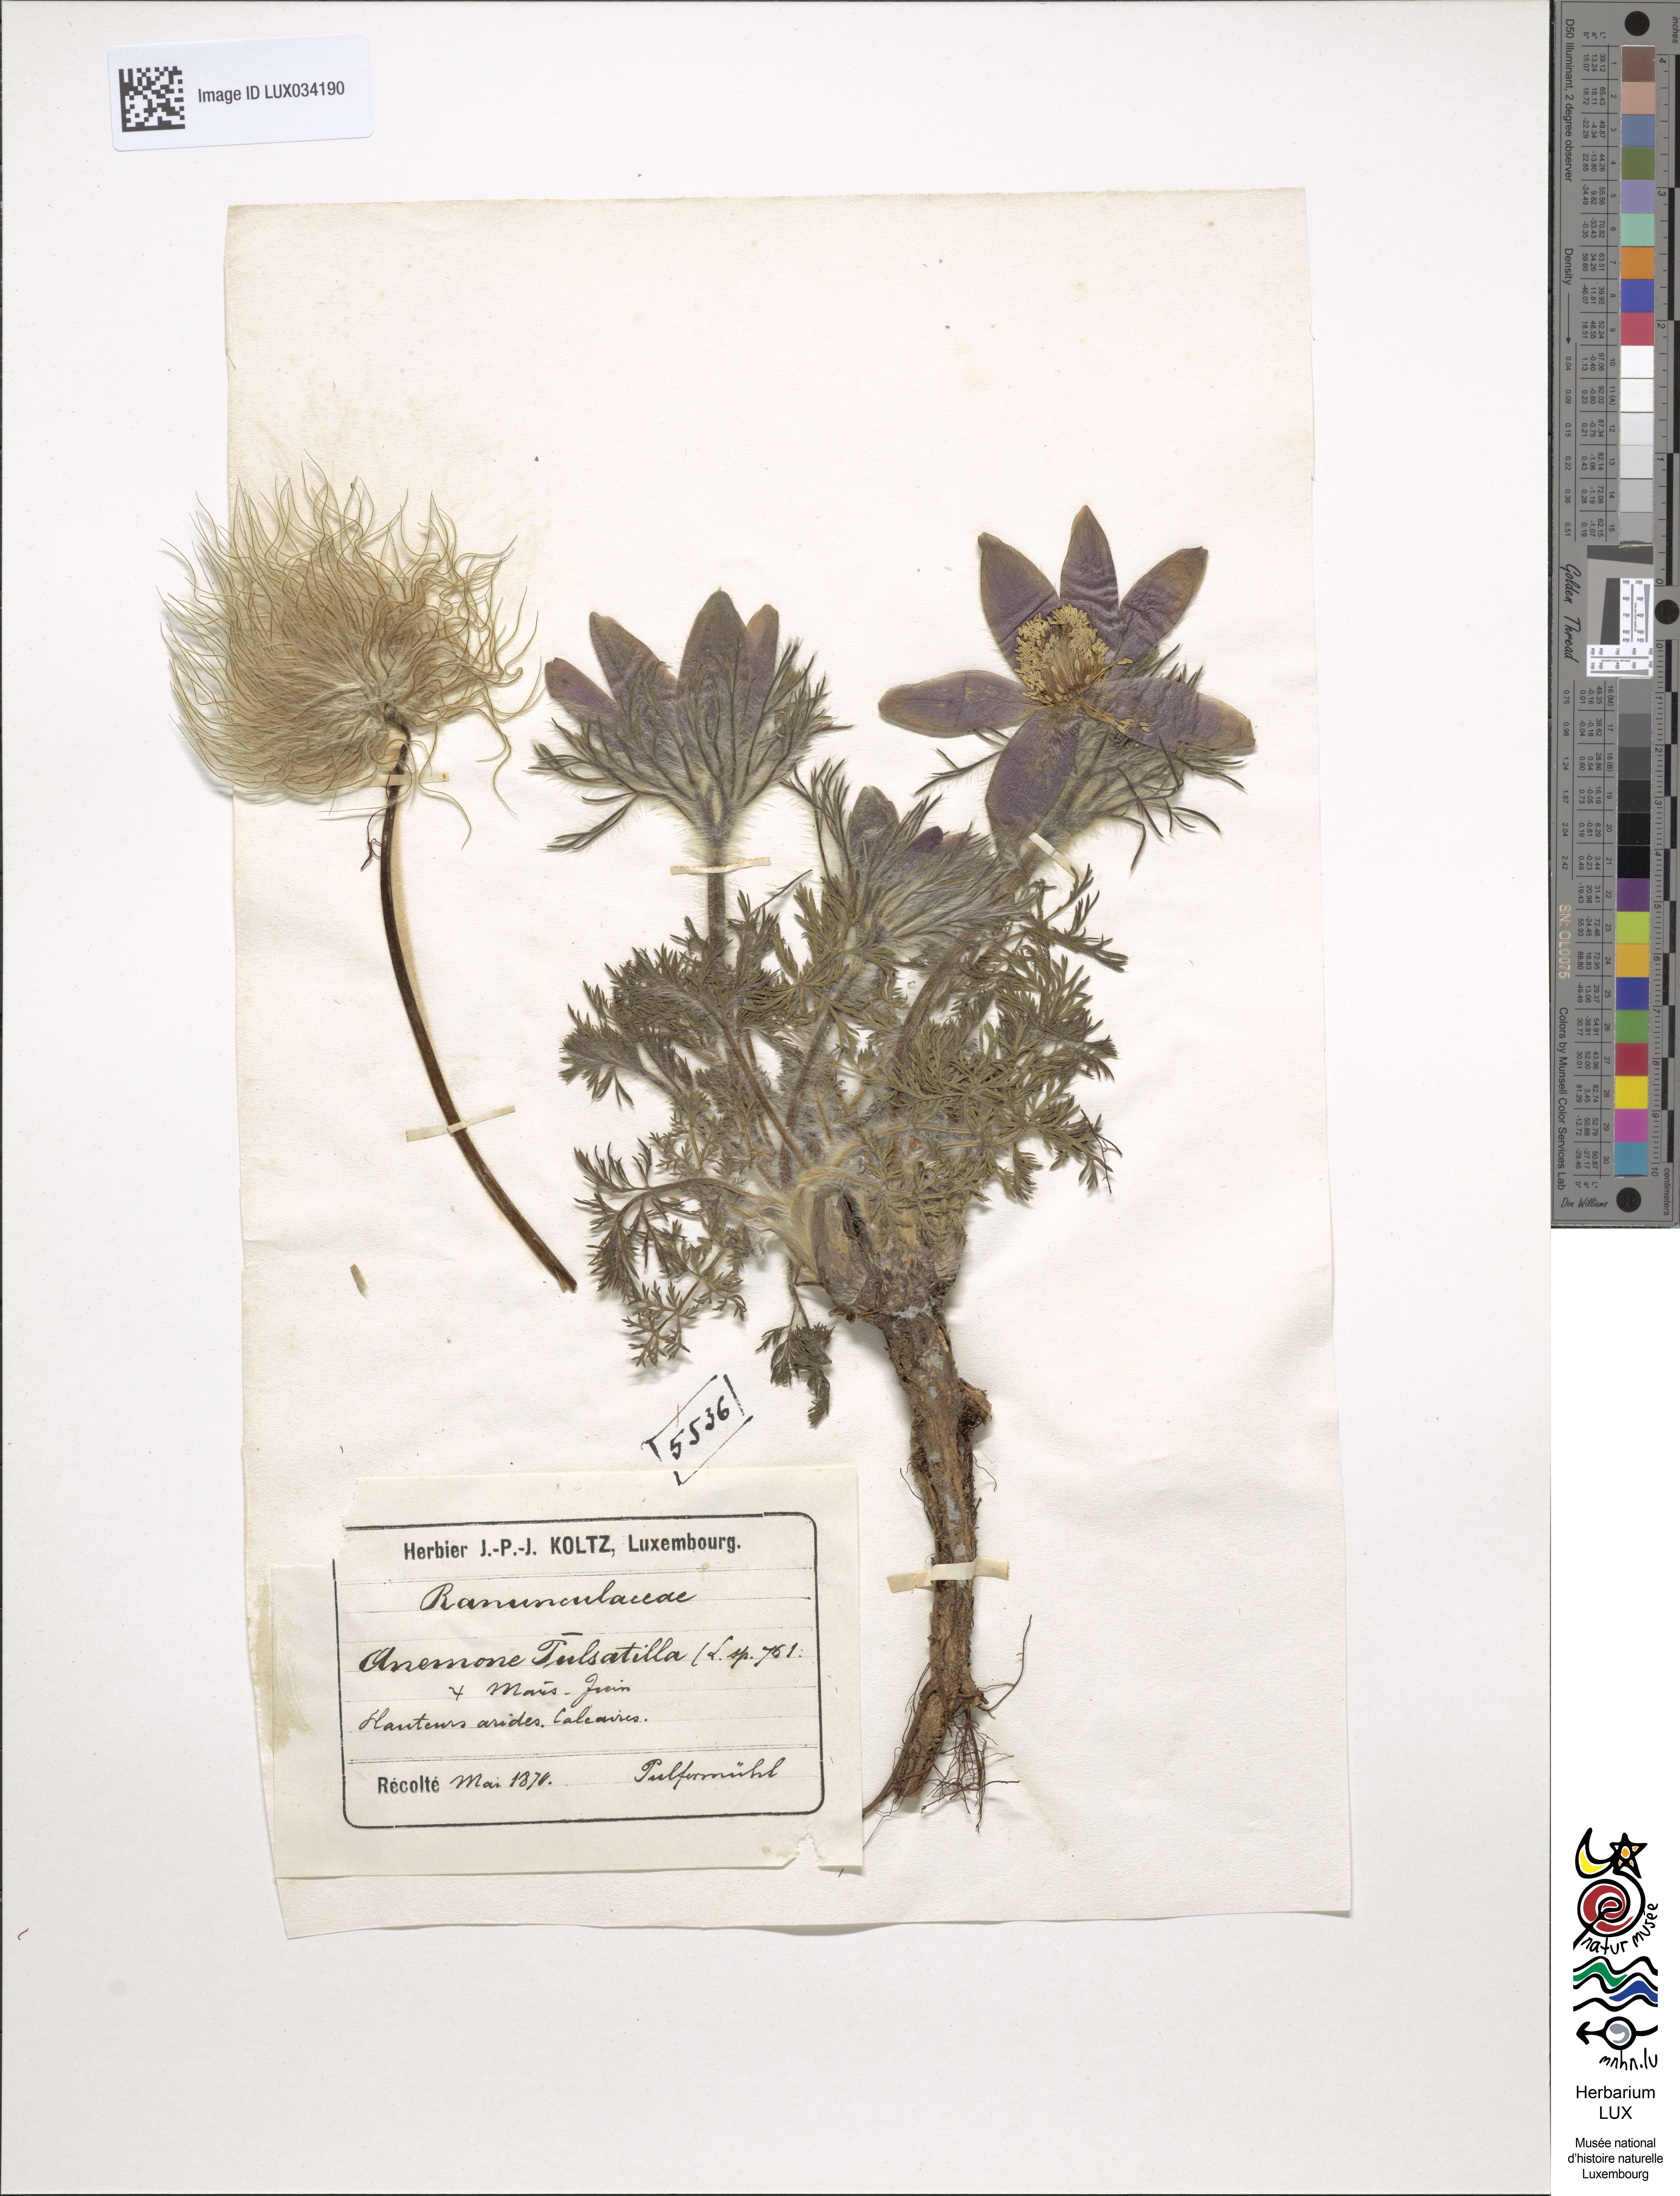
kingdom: Plantae
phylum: Tracheophyta
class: Magnoliopsida
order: Ranunculales
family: Ranunculaceae
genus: Pulsatilla
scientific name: Pulsatilla vulgaris
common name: Pasqueflower
